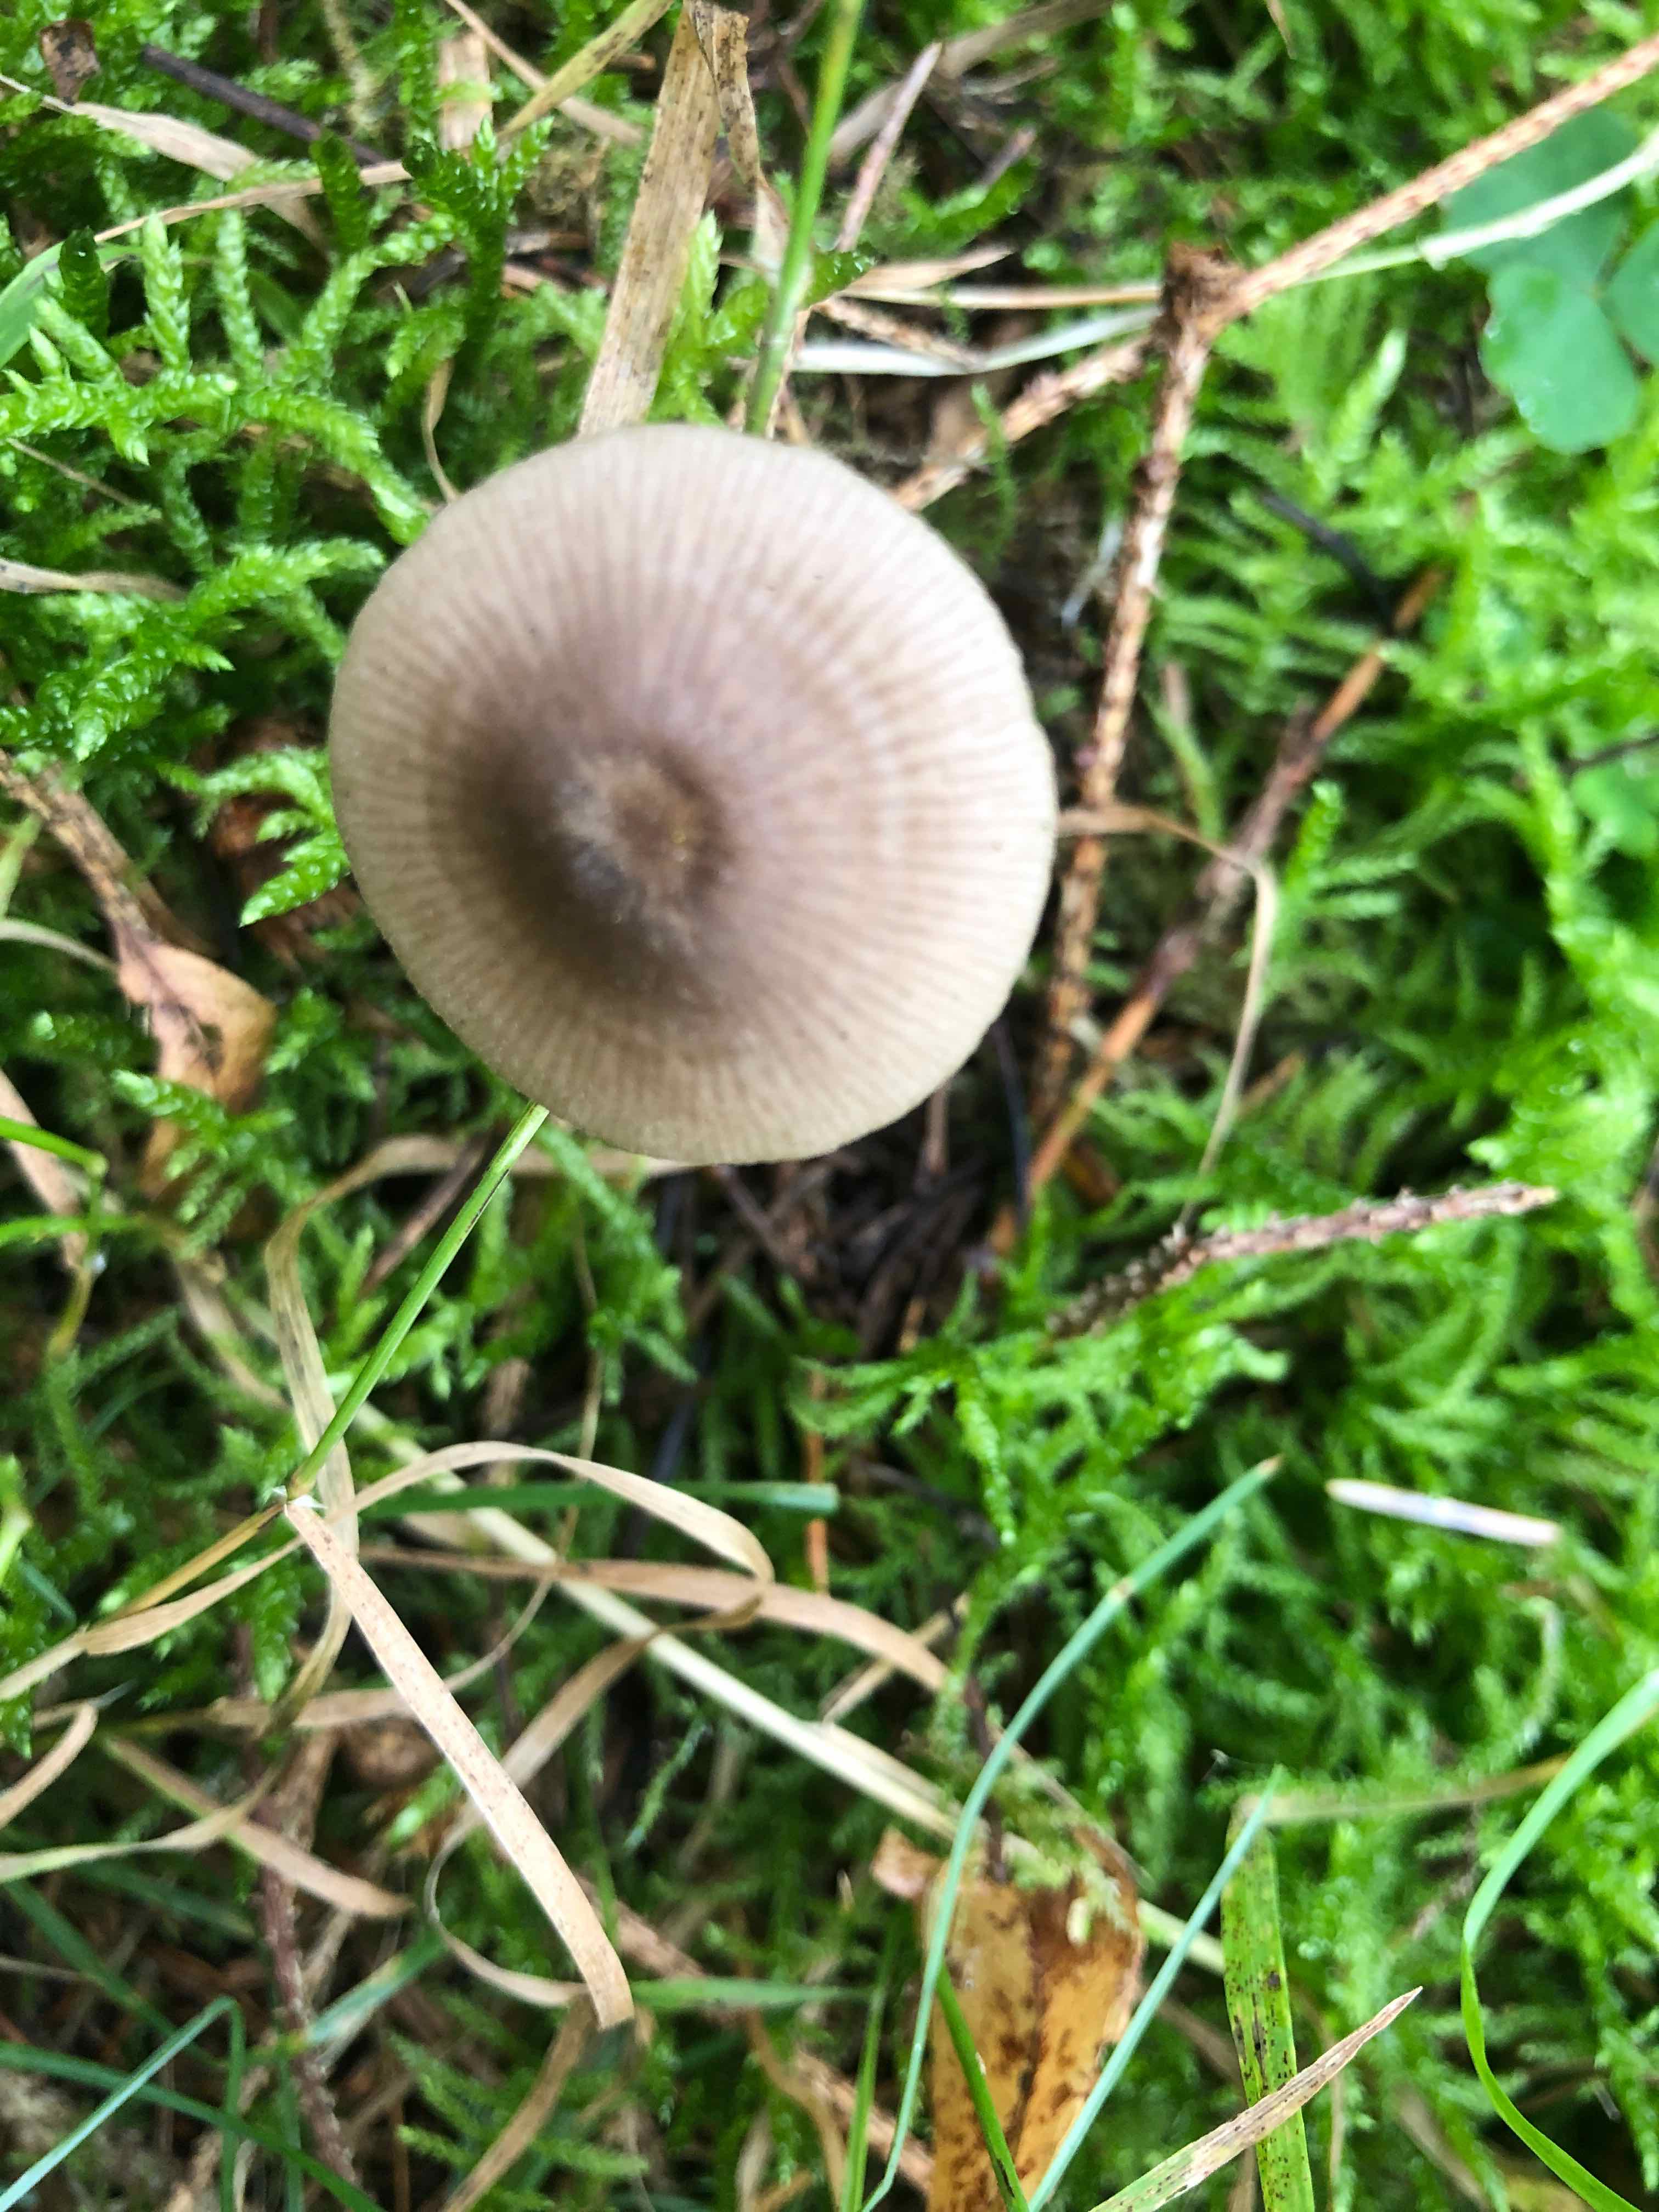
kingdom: Fungi
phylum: Basidiomycota
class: Agaricomycetes
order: Agaricales
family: Entolomataceae
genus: Entoloma
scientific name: Entoloma
